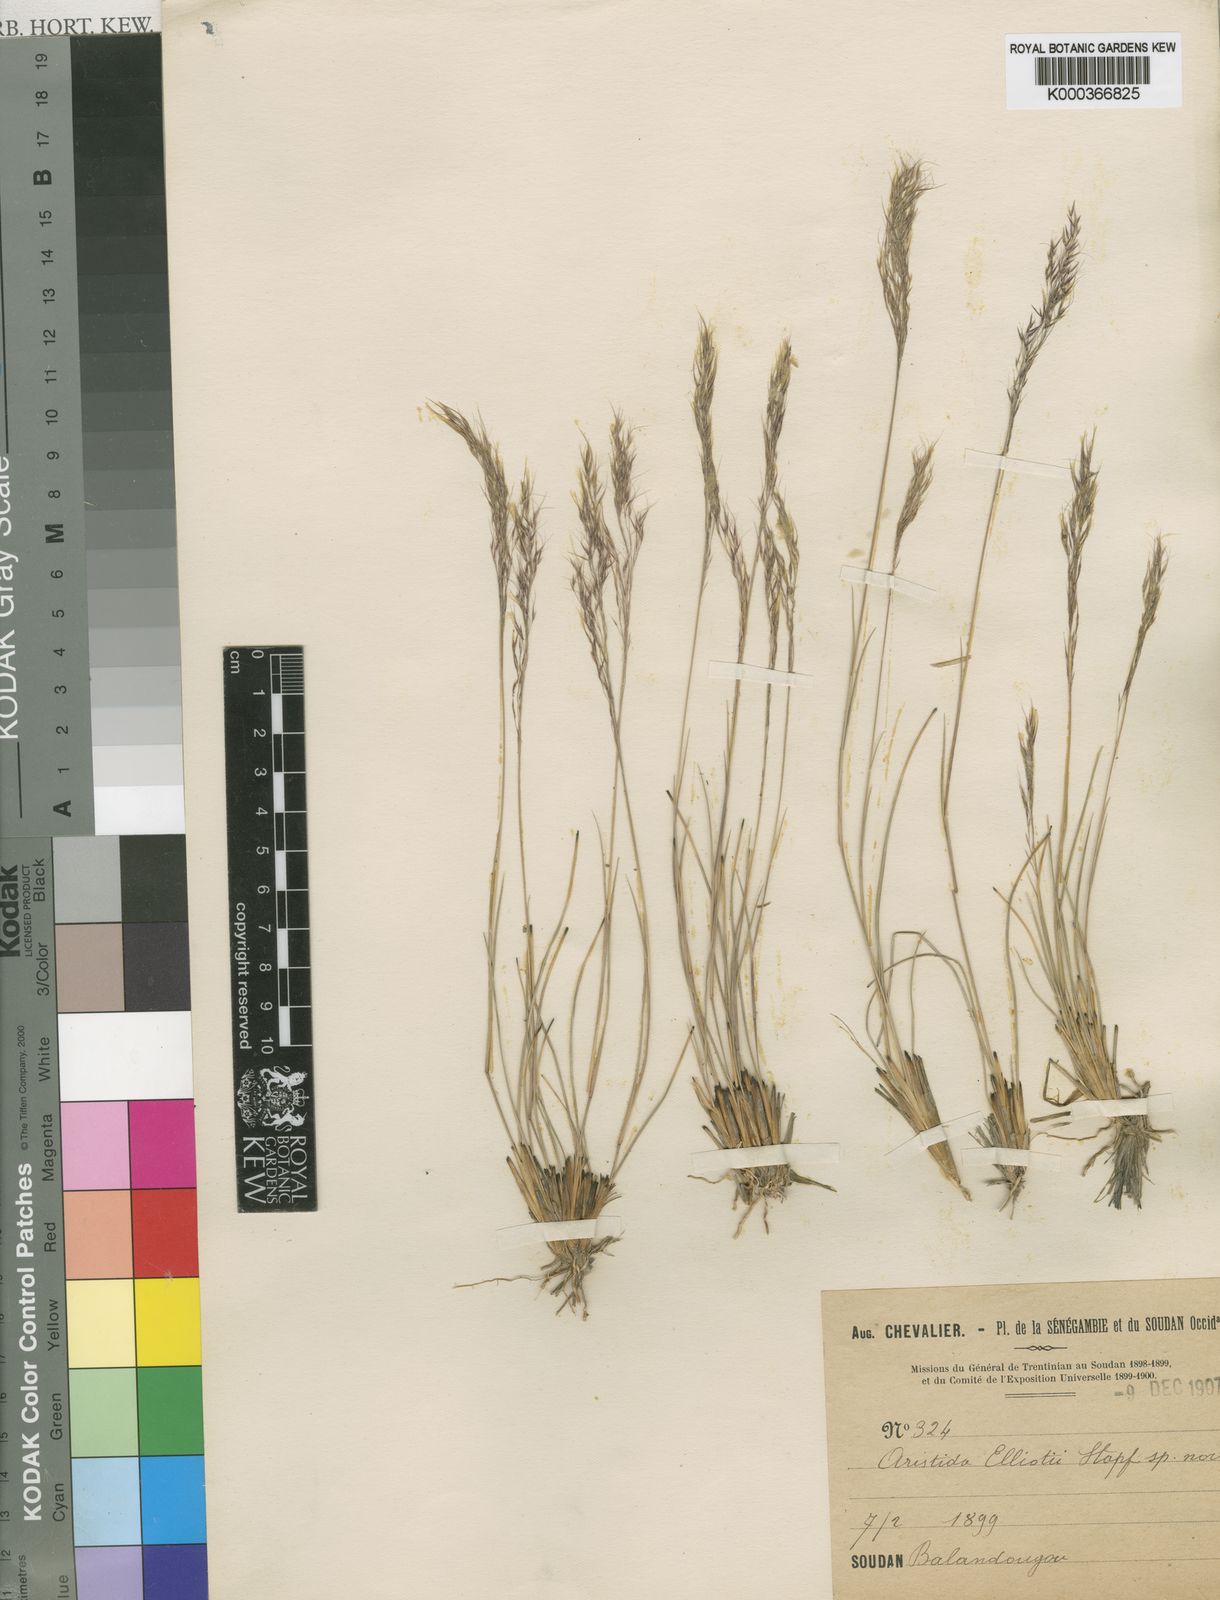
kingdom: Plantae
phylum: Tracheophyta
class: Liliopsida
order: Poales
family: Poaceae
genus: Aristida
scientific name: Aristida
